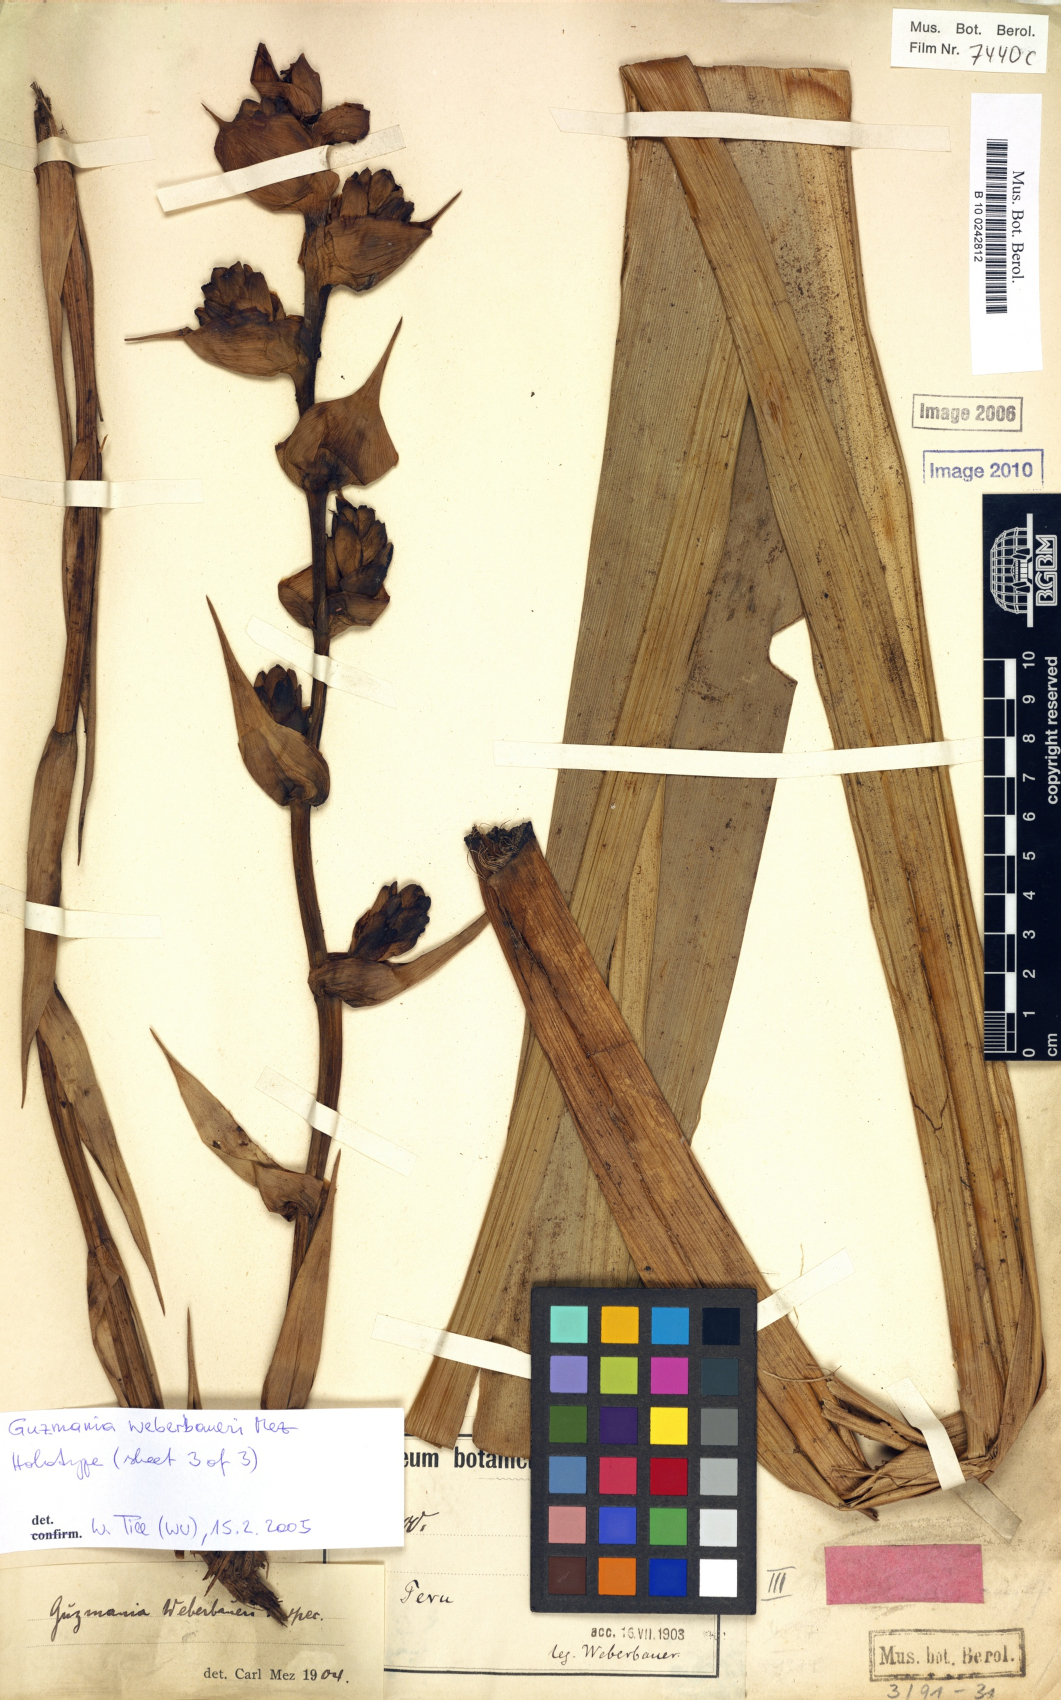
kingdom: Plantae
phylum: Tracheophyta
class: Liliopsida
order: Poales
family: Bromeliaceae
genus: Guzmania
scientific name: Guzmania weberbaueri
